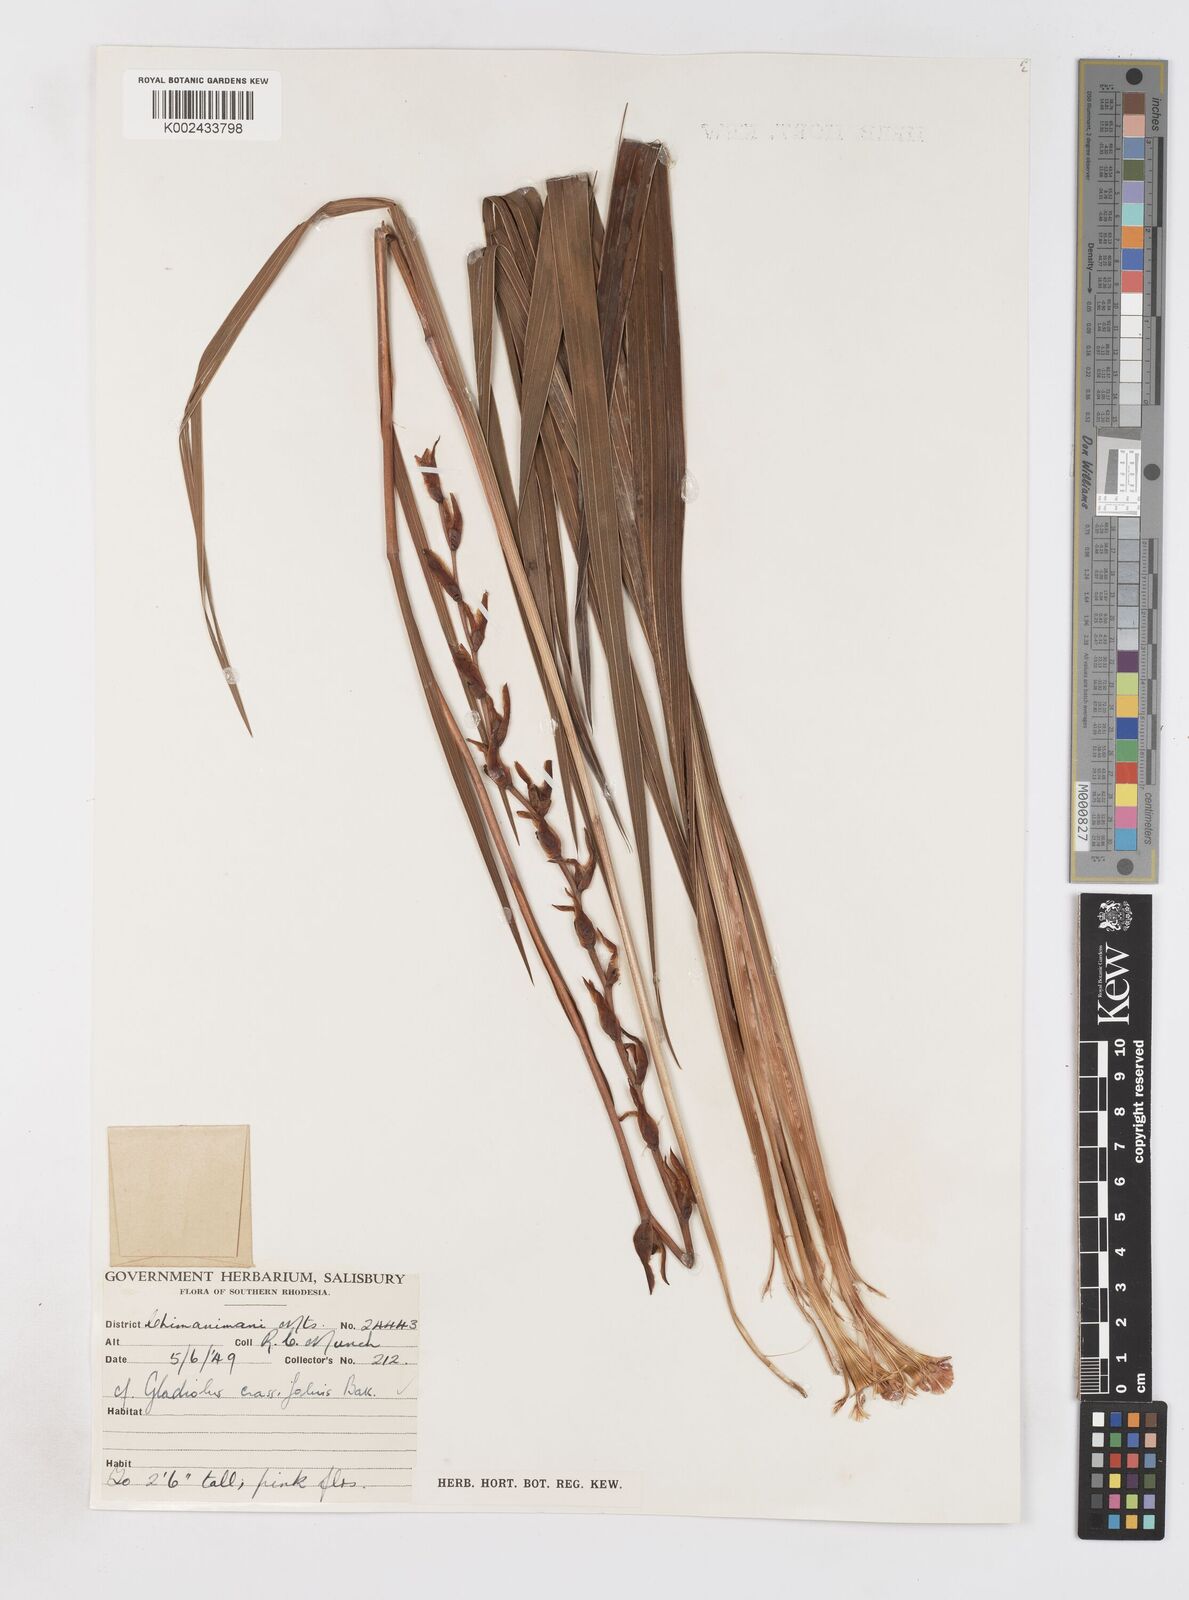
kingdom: Plantae
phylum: Tracheophyta
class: Liliopsida
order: Asparagales
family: Iridaceae
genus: Gladiolus
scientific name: Gladiolus crassifolius
